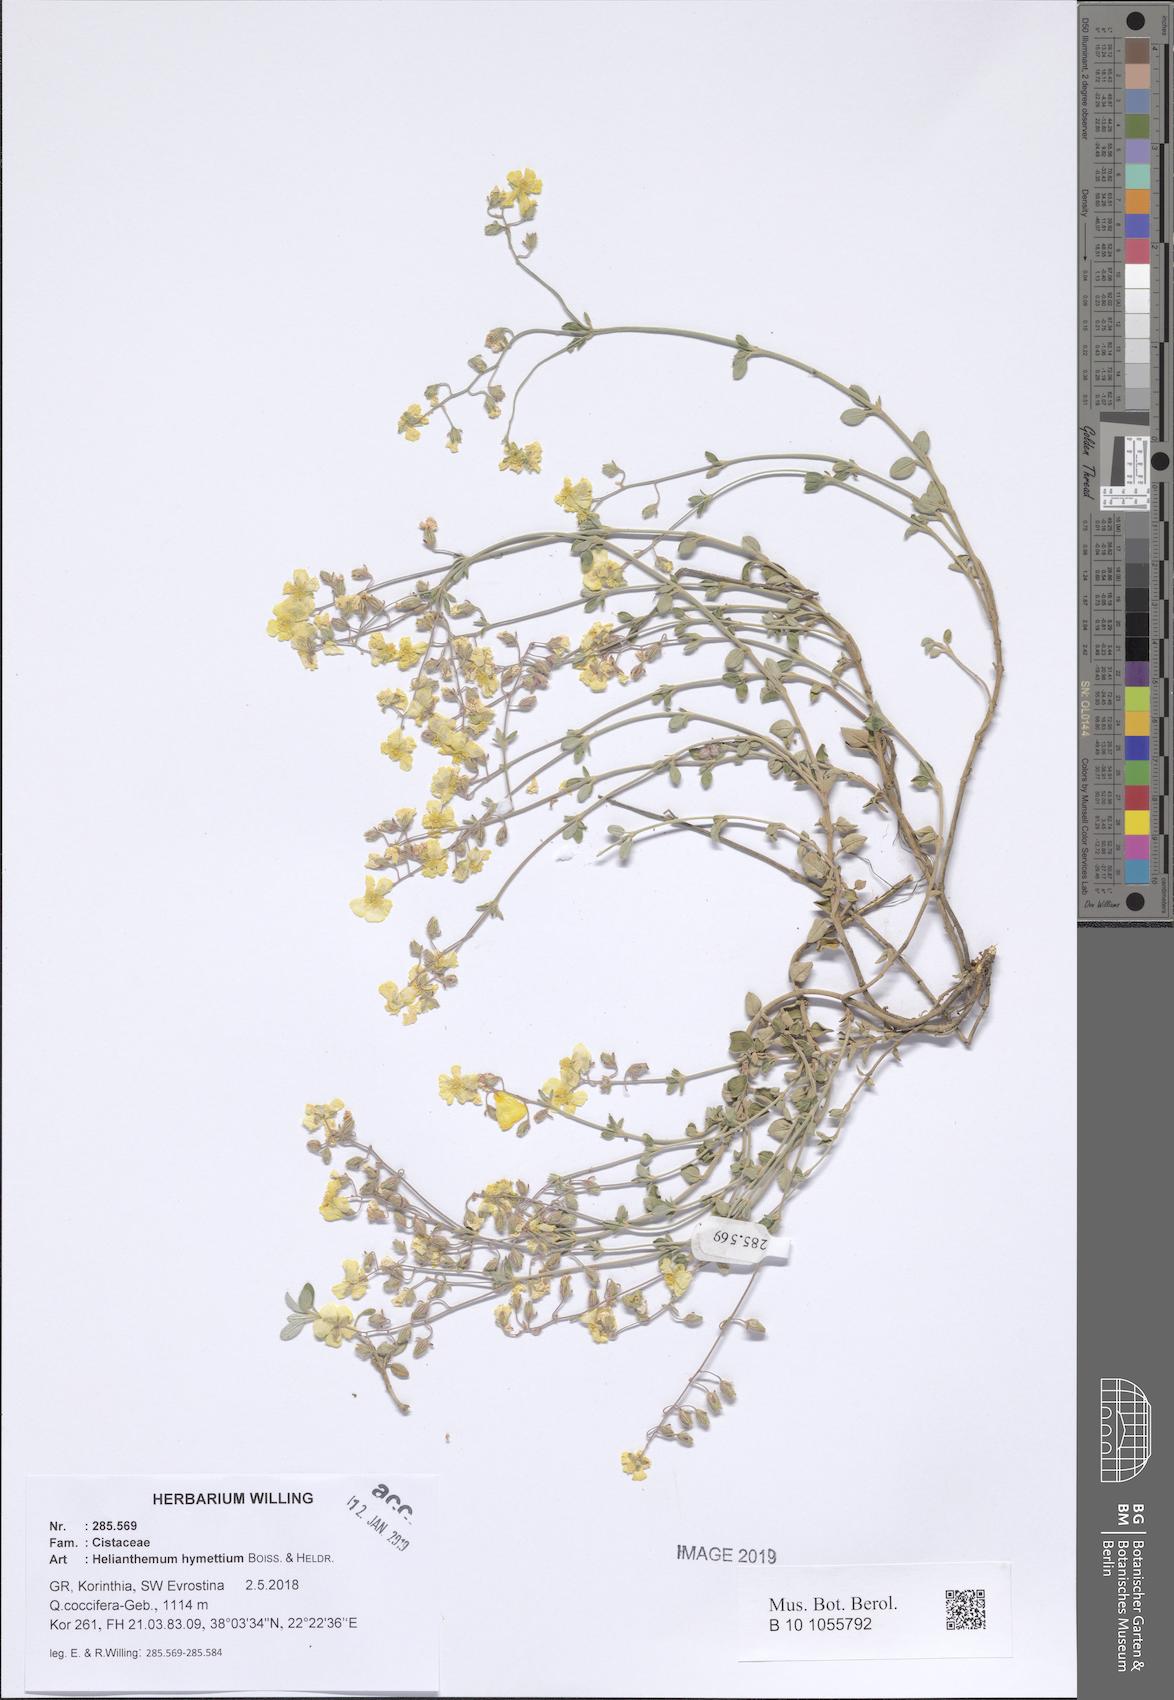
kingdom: Plantae
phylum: Tracheophyta
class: Magnoliopsida
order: Malvales
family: Cistaceae
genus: Helianthemum
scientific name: Helianthemum hymettium
